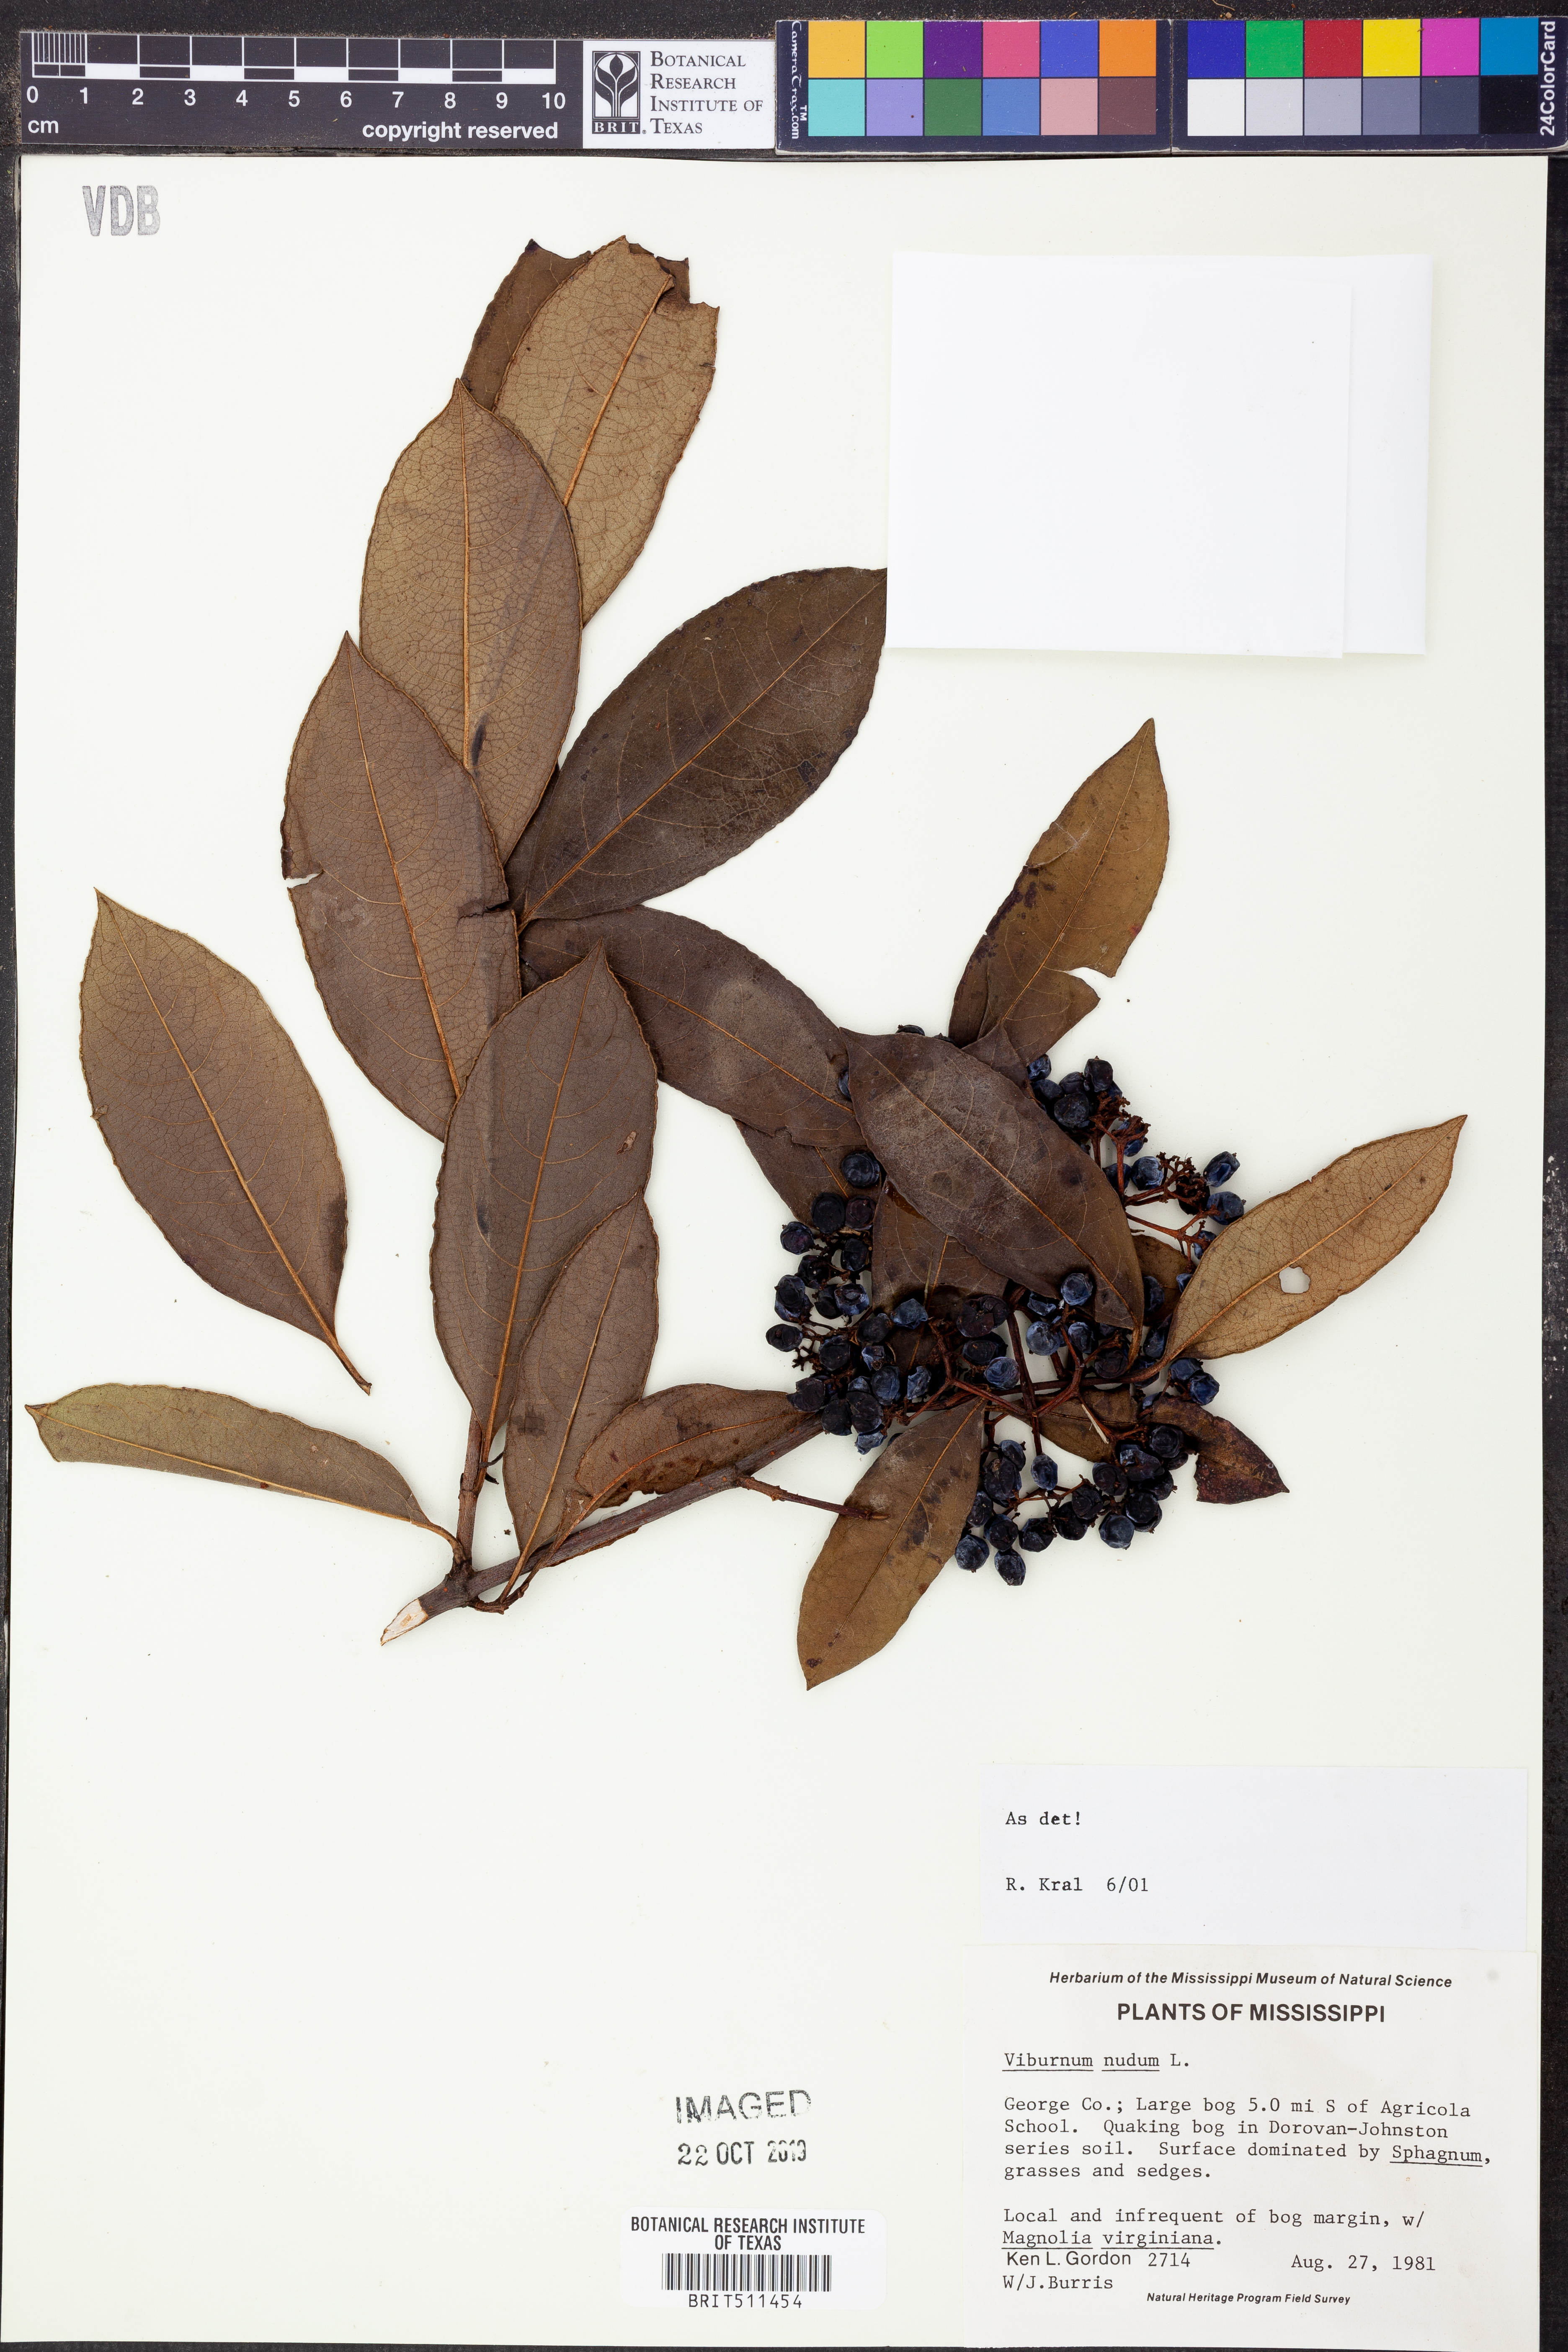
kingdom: Plantae
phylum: Tracheophyta
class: Magnoliopsida
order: Dipsacales
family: Viburnaceae
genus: Viburnum
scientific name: Viburnum nudum
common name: Possum haw
